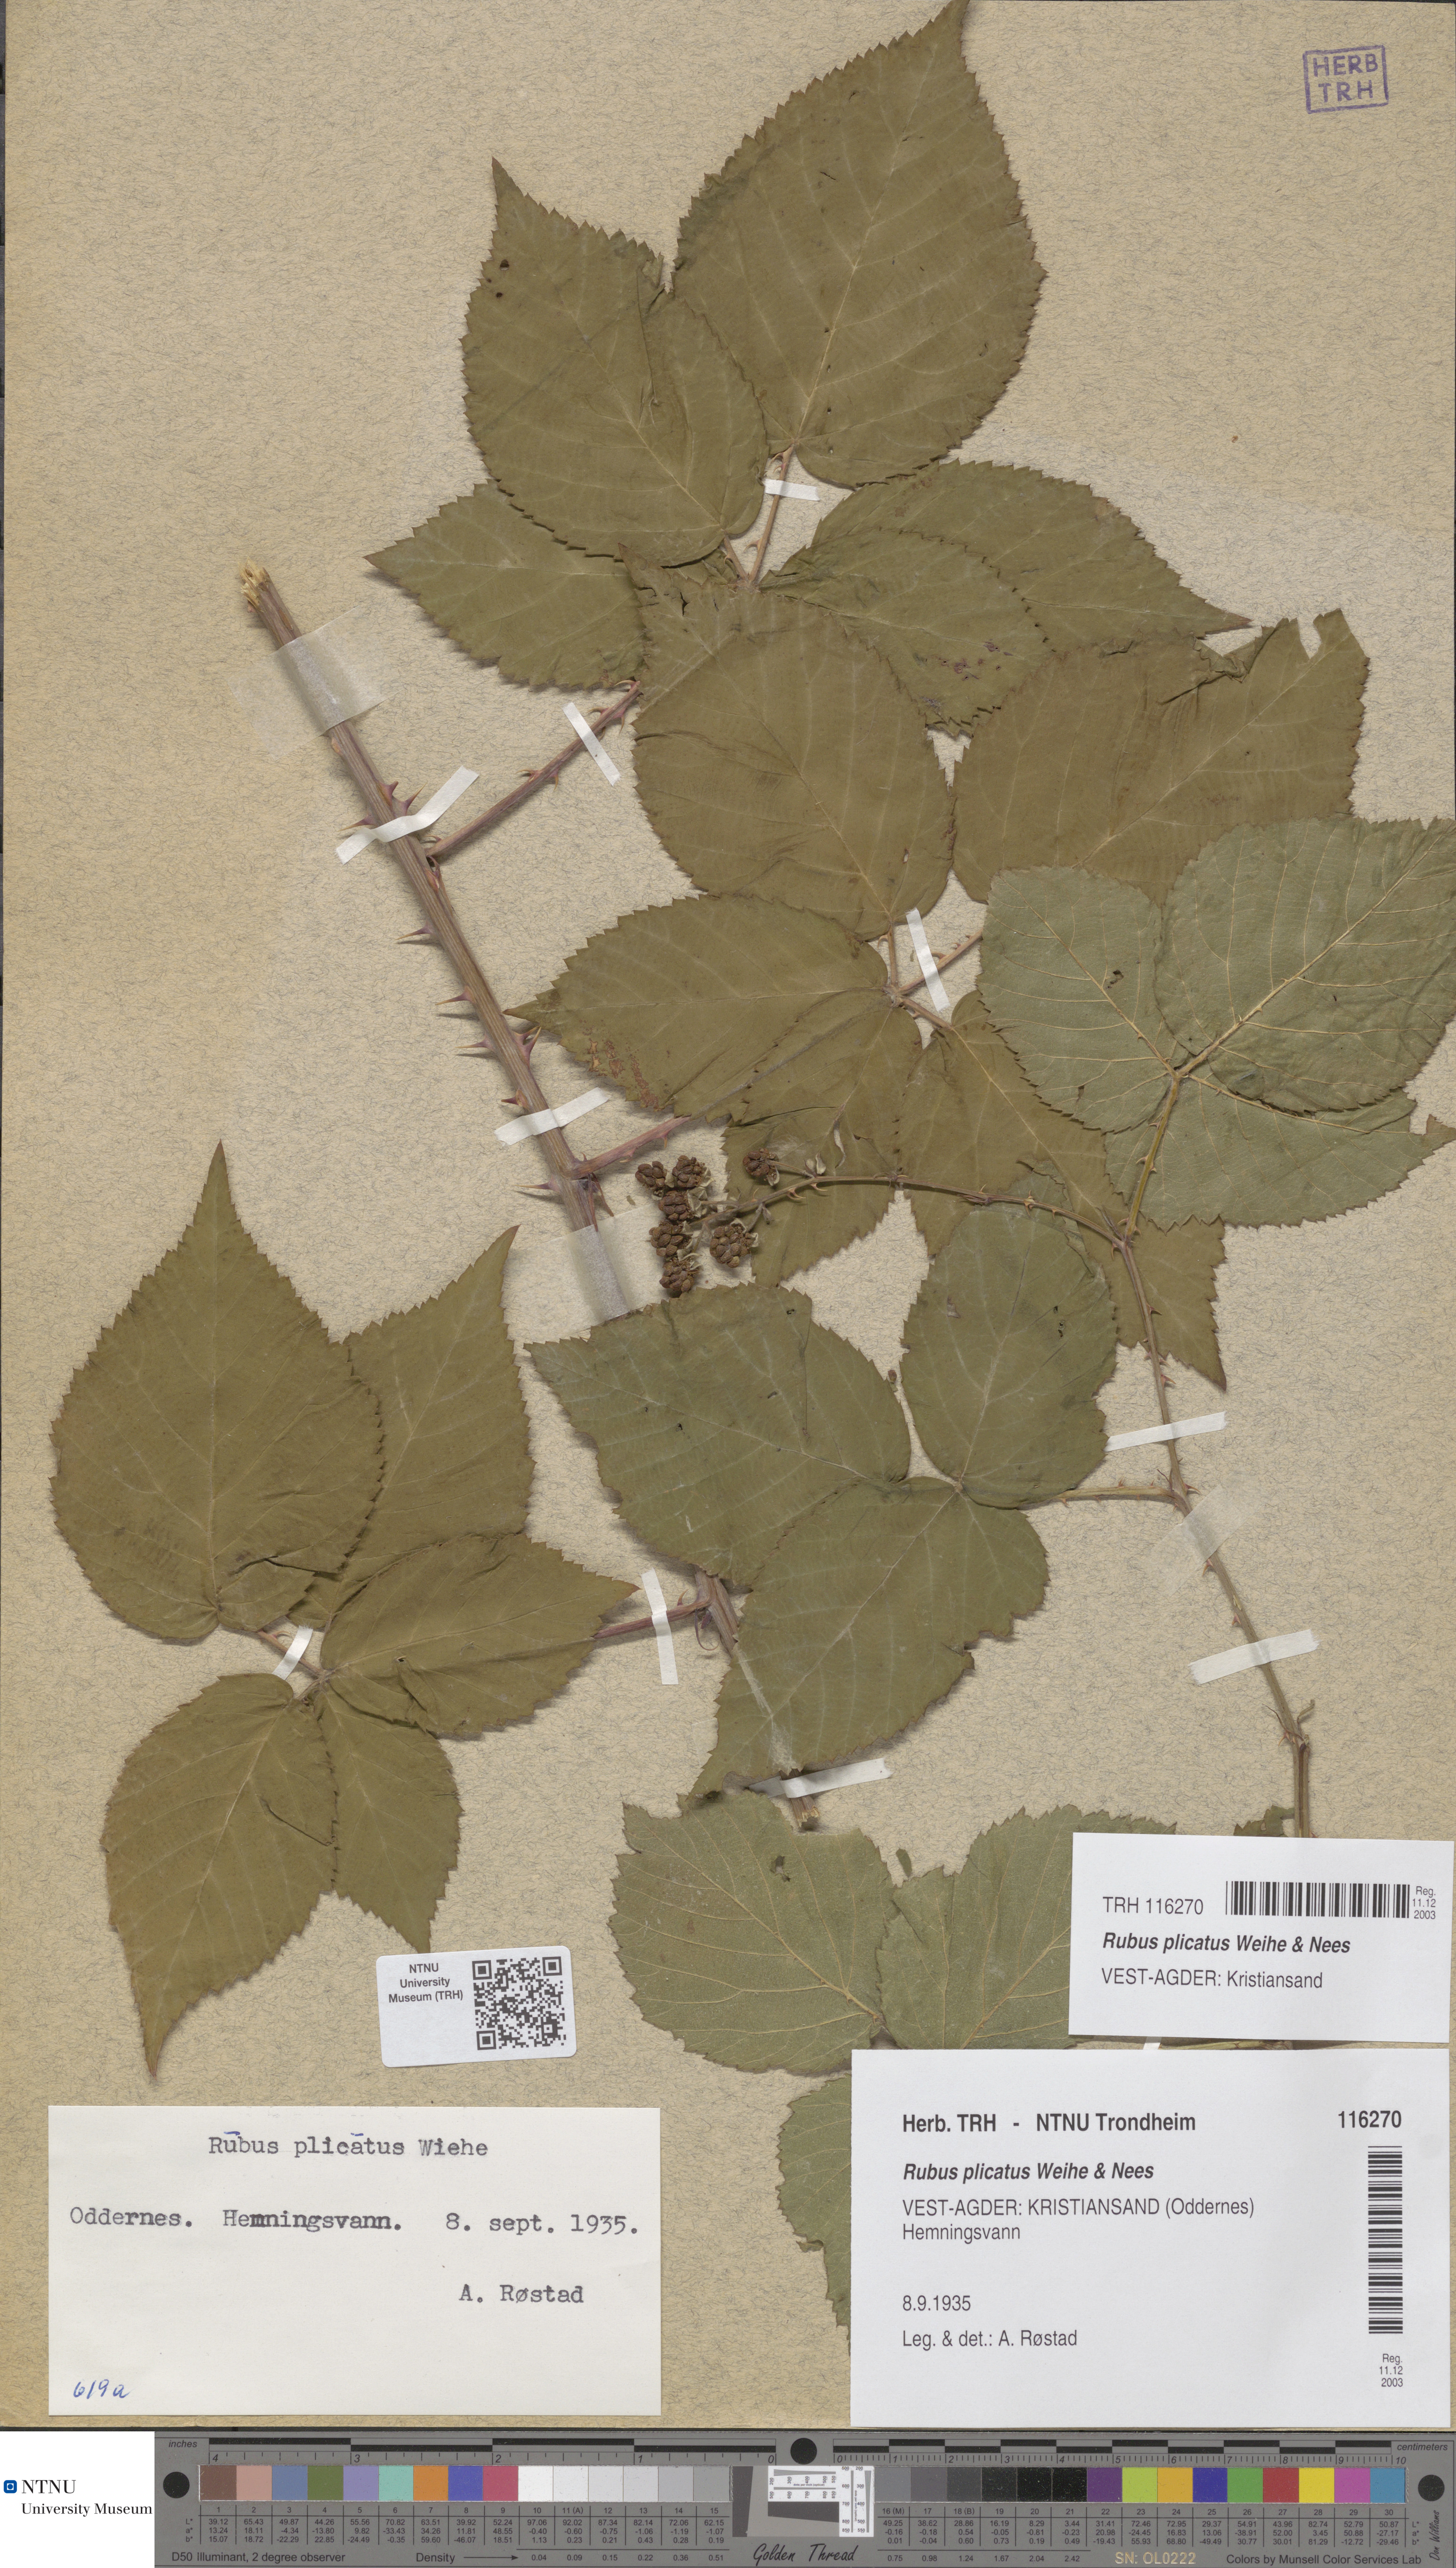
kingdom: Plantae
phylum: Tracheophyta
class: Magnoliopsida
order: Rosales
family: Rosaceae
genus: Rubus
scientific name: Rubus fruticosus
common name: Blackberry, bramble
